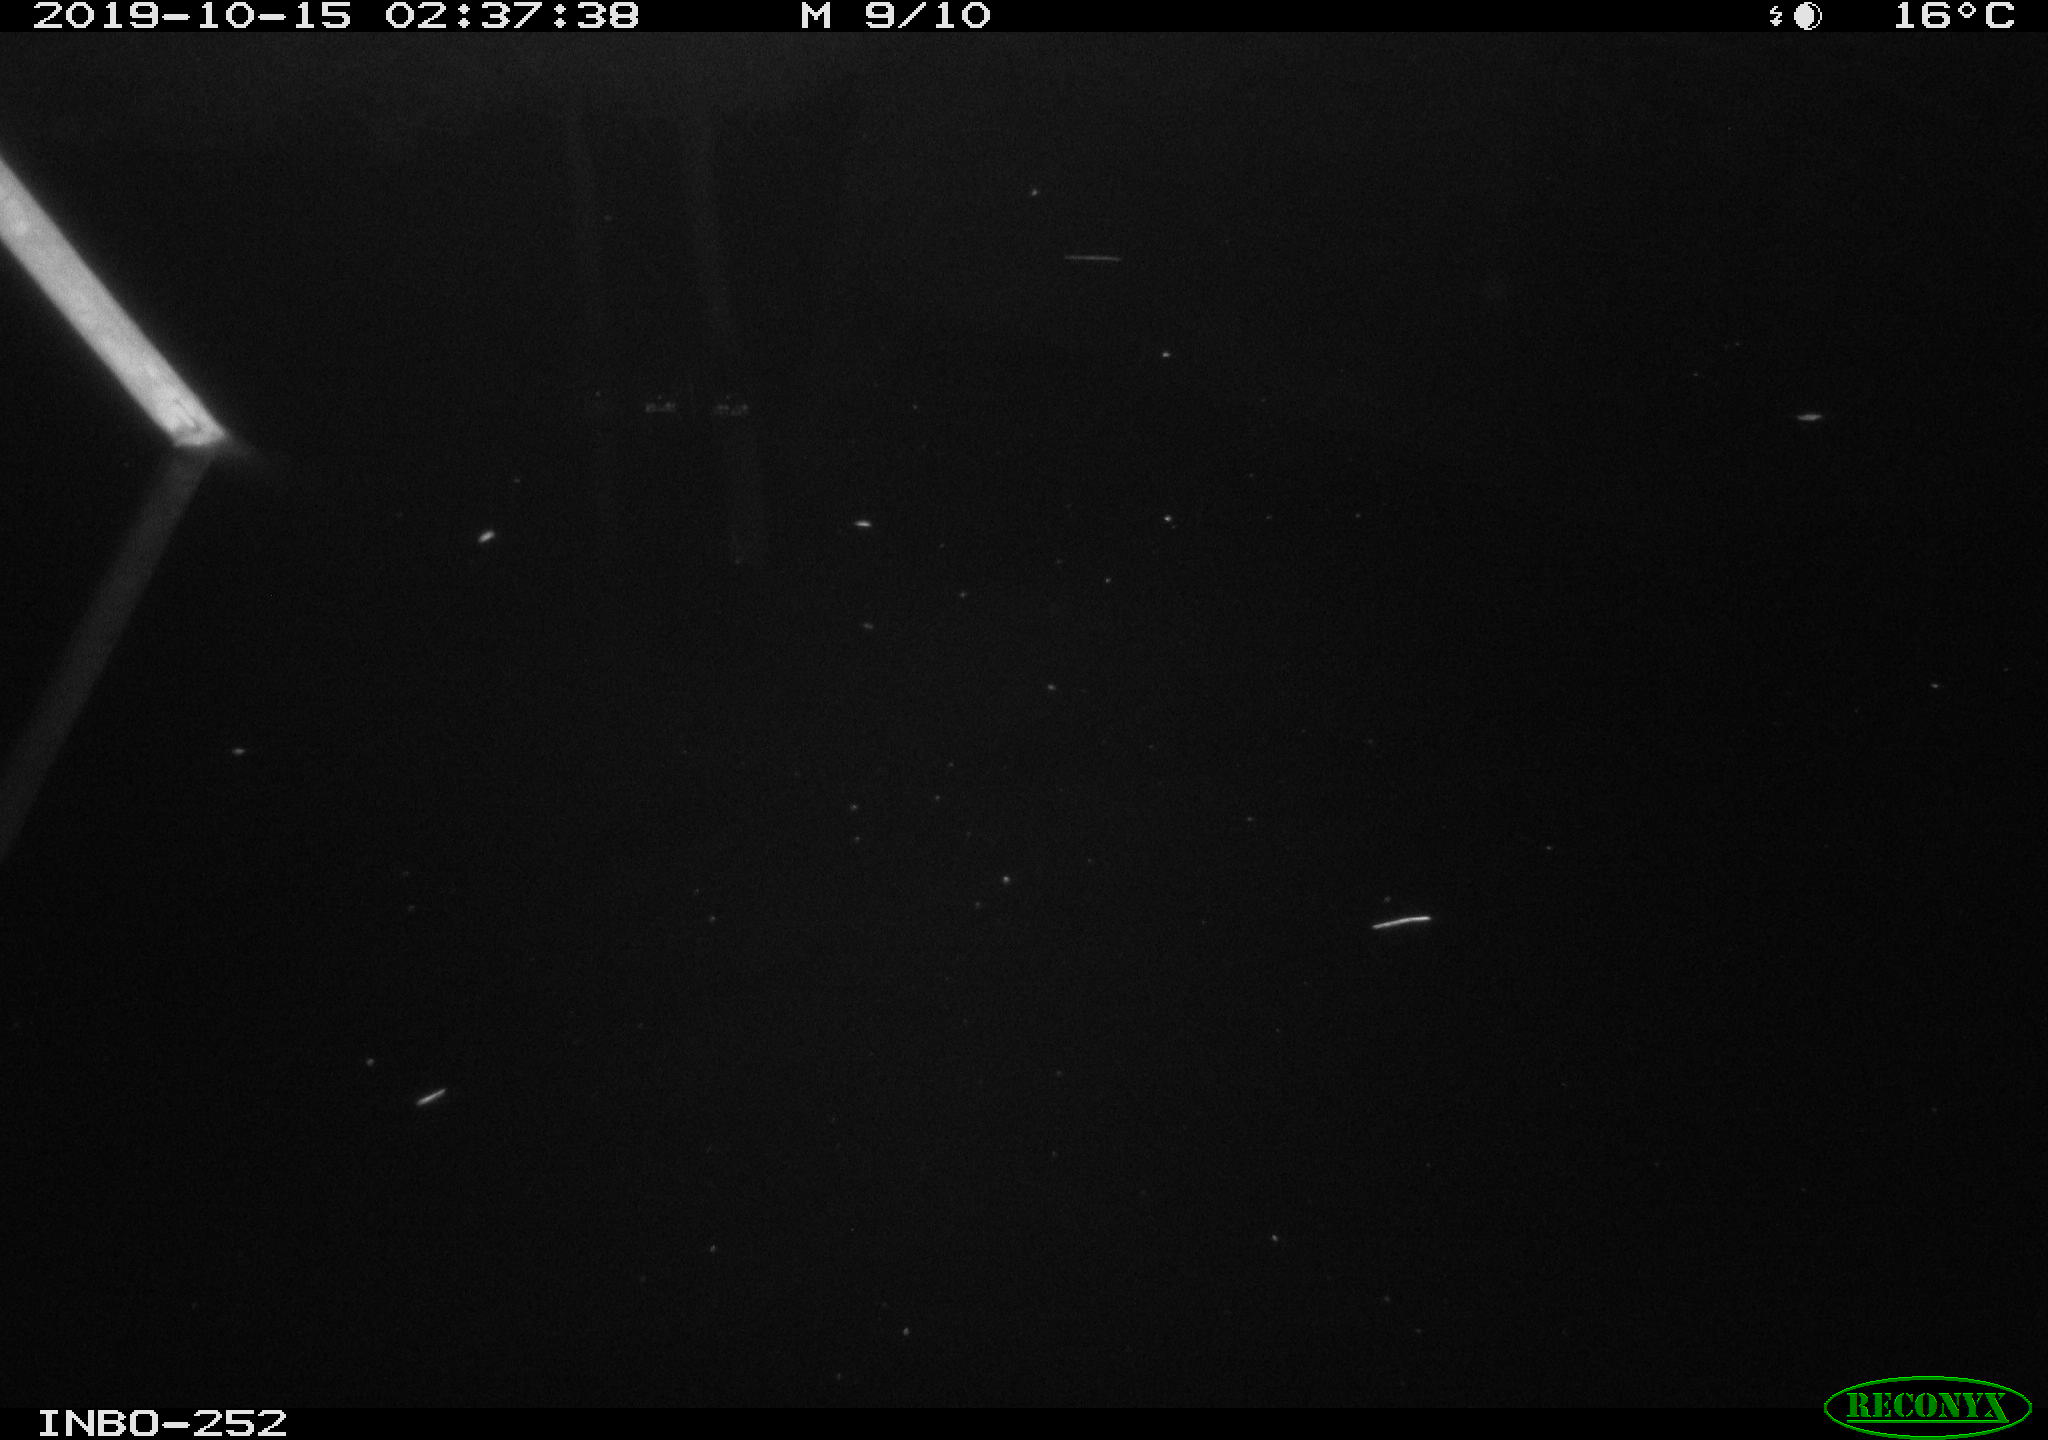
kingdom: Animalia
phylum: Chordata
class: Aves
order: Anseriformes
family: Anatidae
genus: Anas
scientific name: Anas platyrhynchos
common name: Mallard
